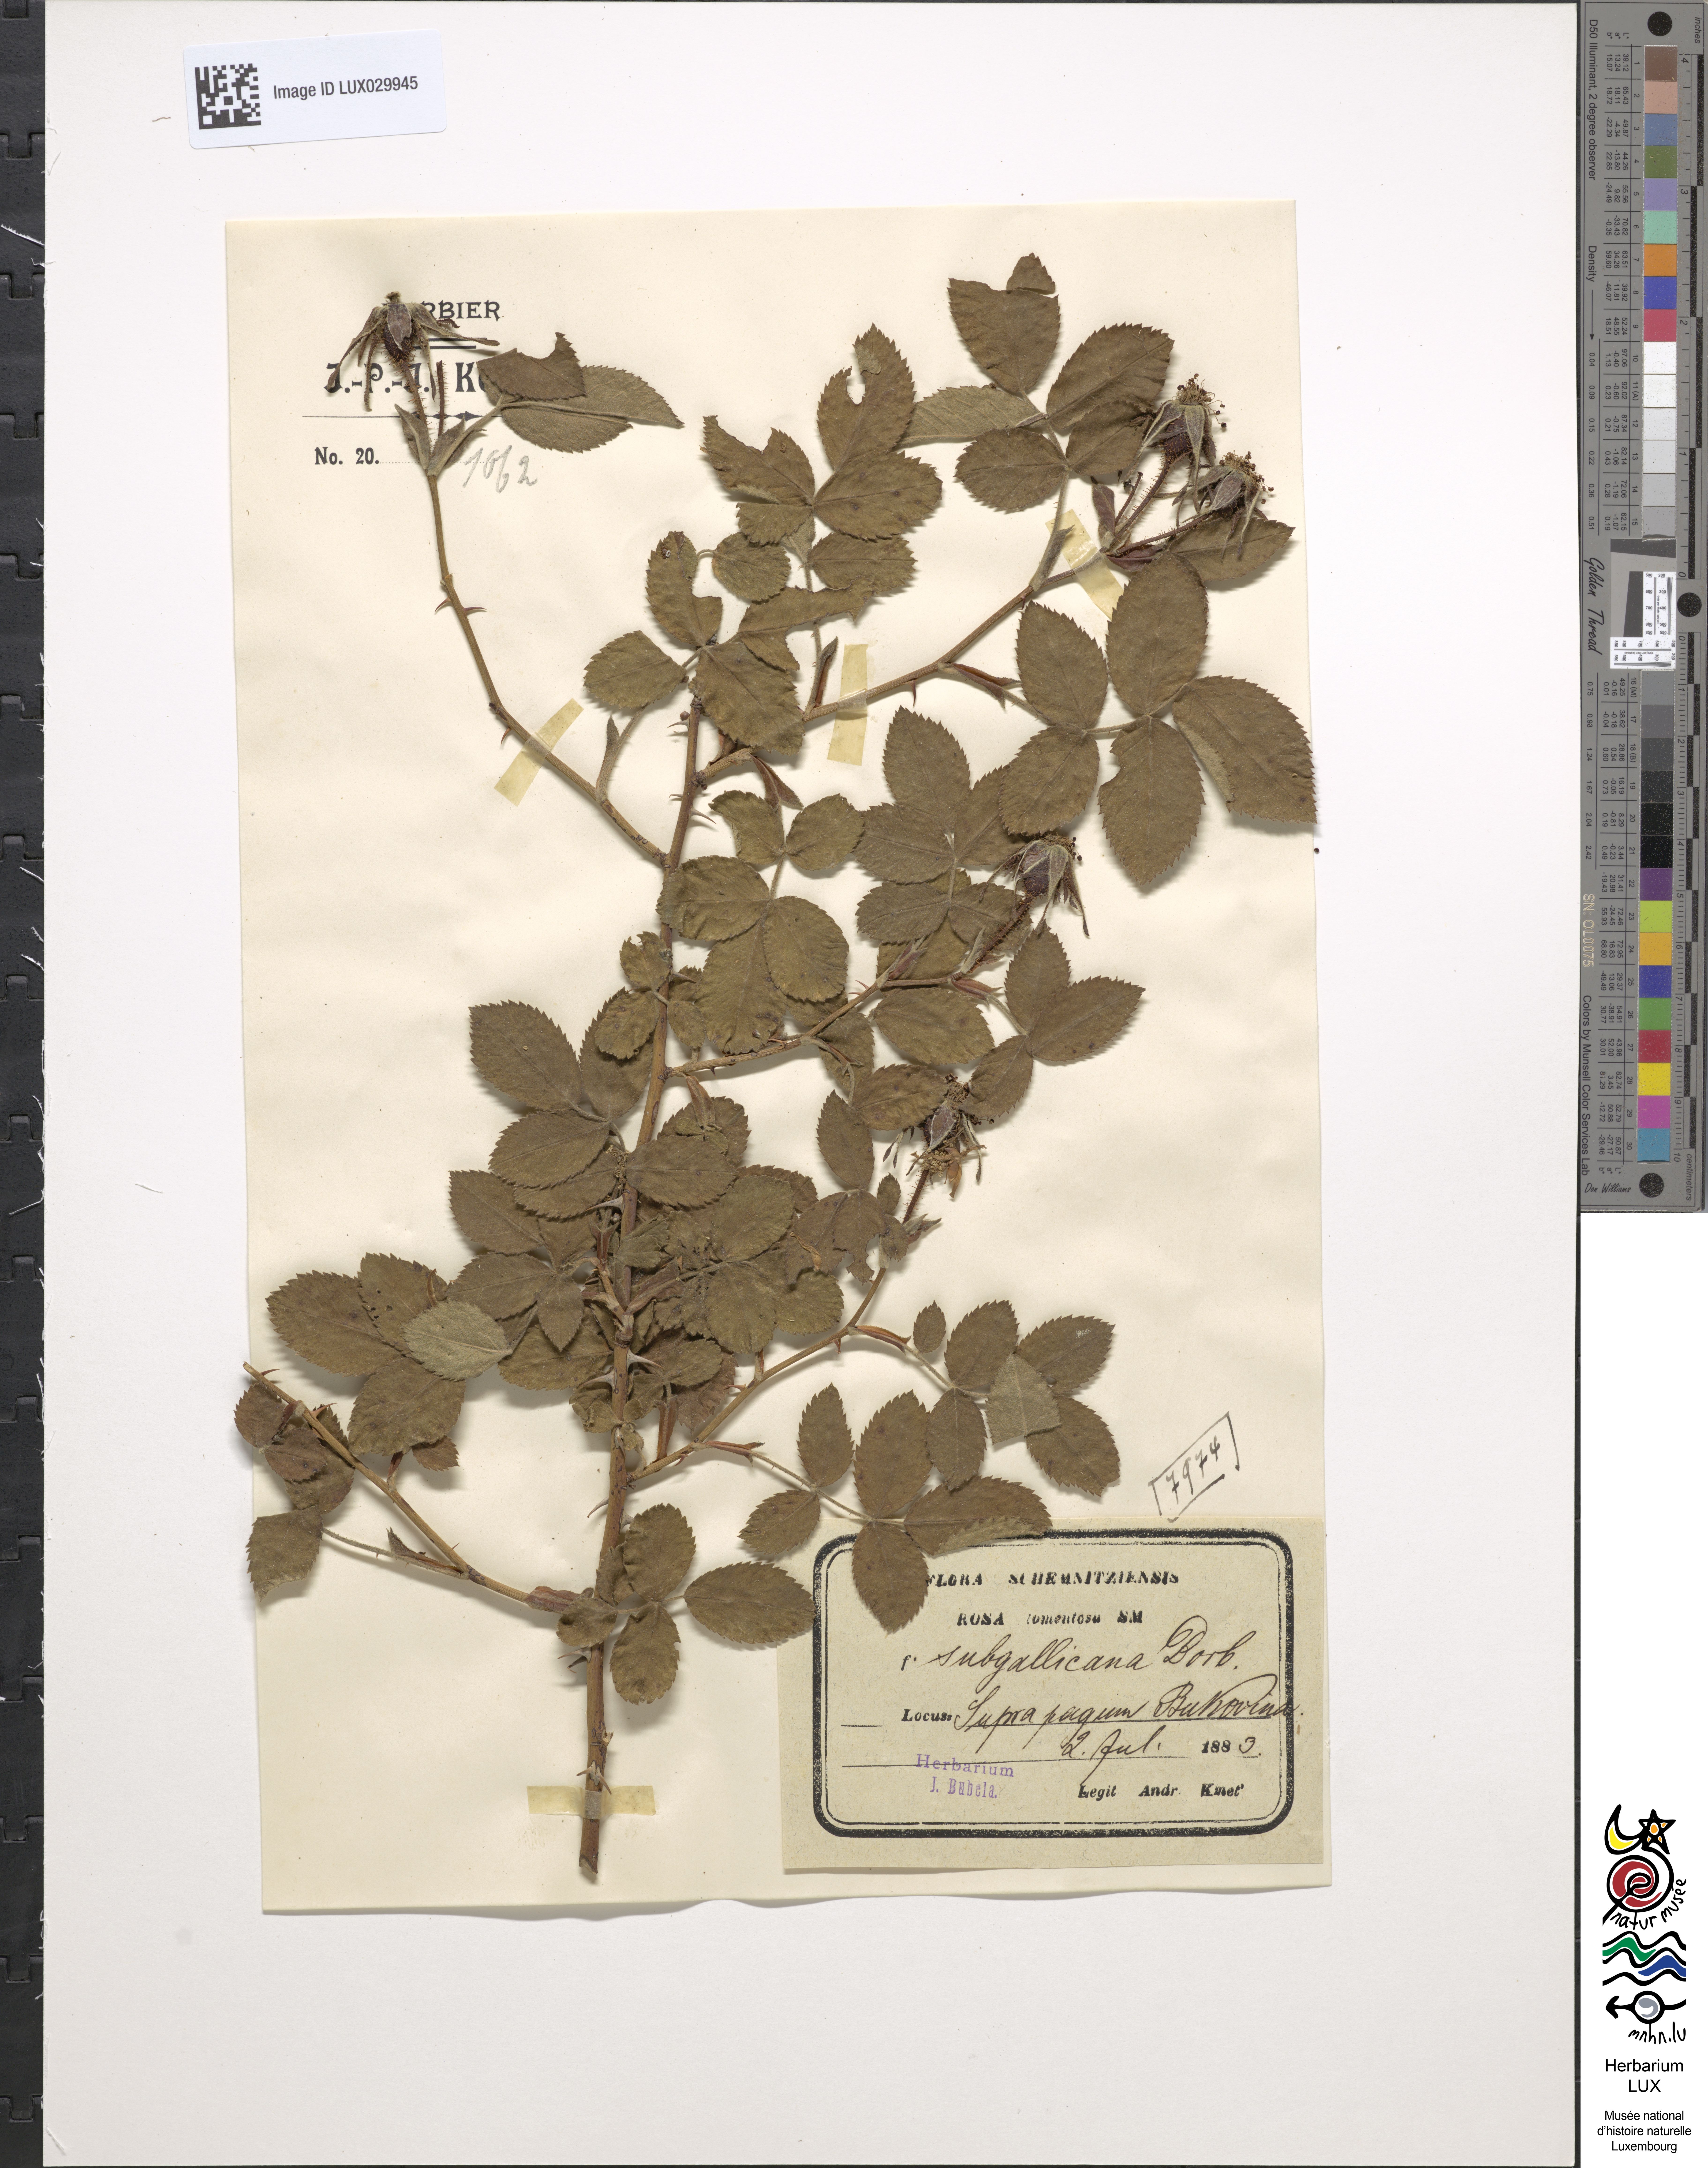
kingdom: Plantae
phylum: Tracheophyta
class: Magnoliopsida
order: Rosales
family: Rosaceae
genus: Rosa
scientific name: Rosa tomentosa
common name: Downy rose
